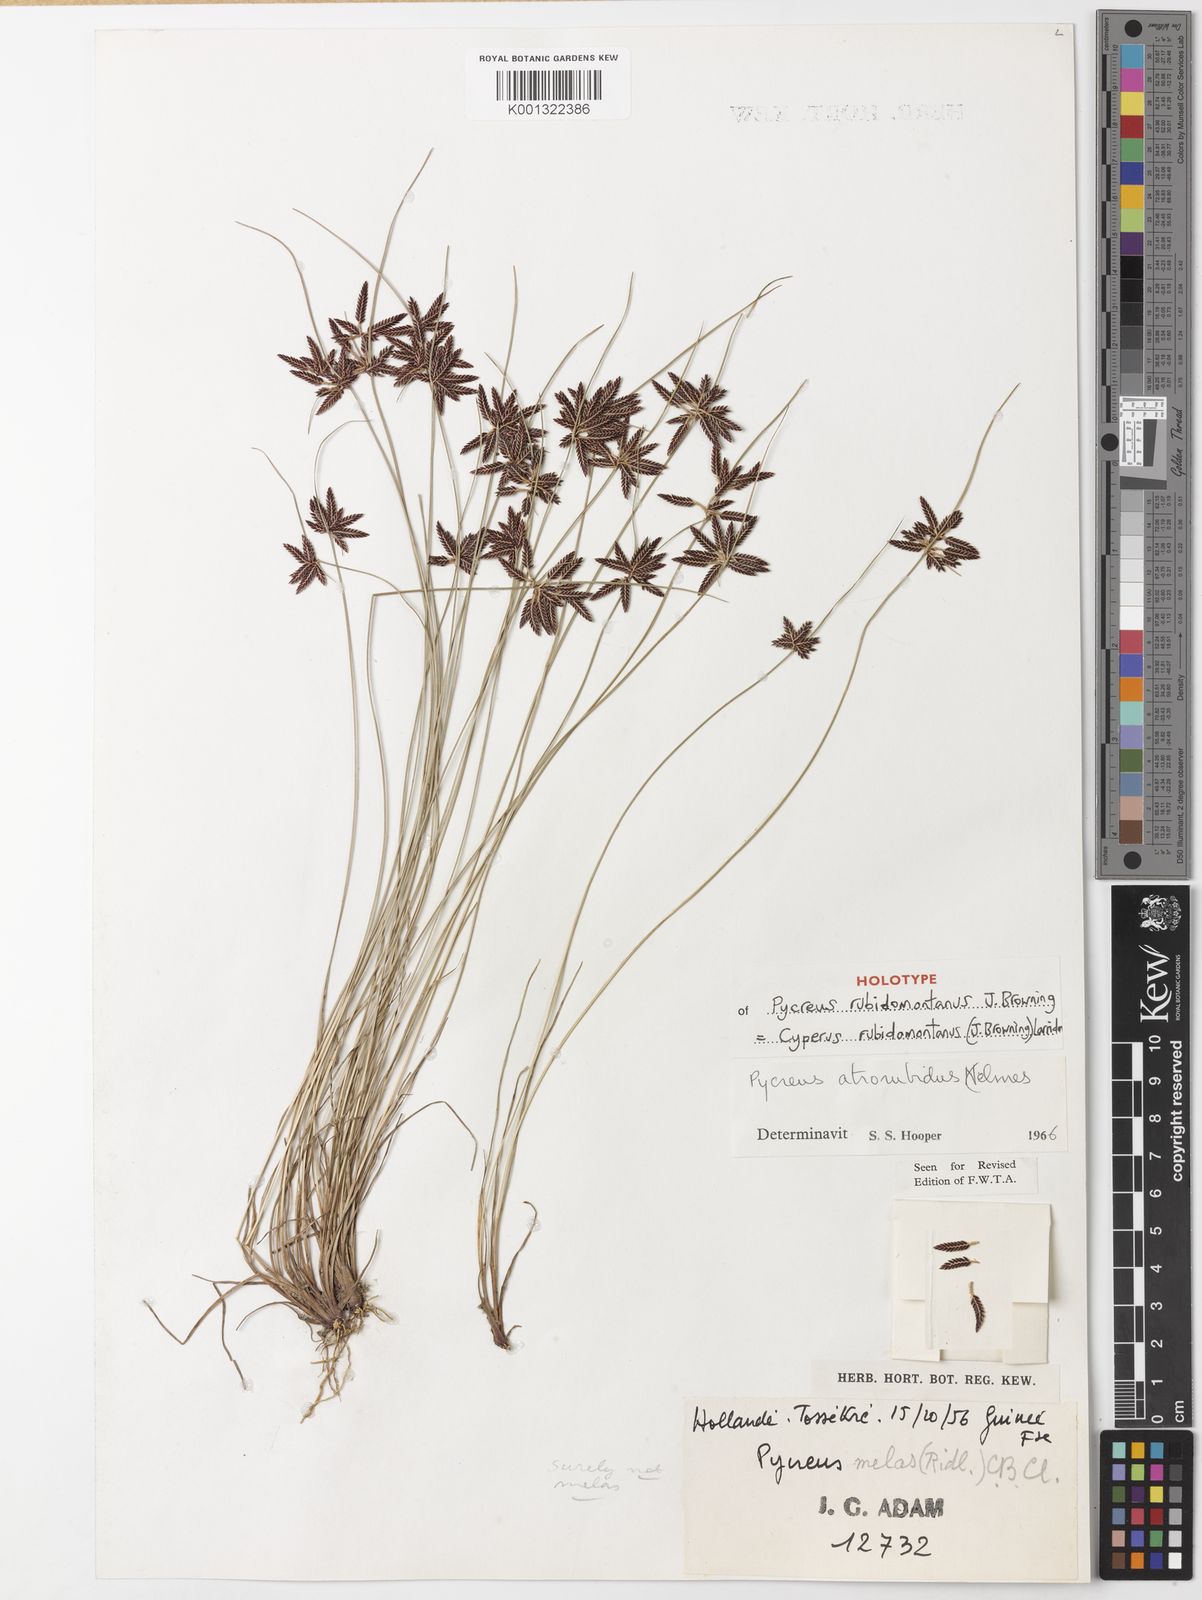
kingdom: Plantae
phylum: Tracheophyta
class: Liliopsida
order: Poales
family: Cyperaceae
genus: Cyperus
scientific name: Cyperus
